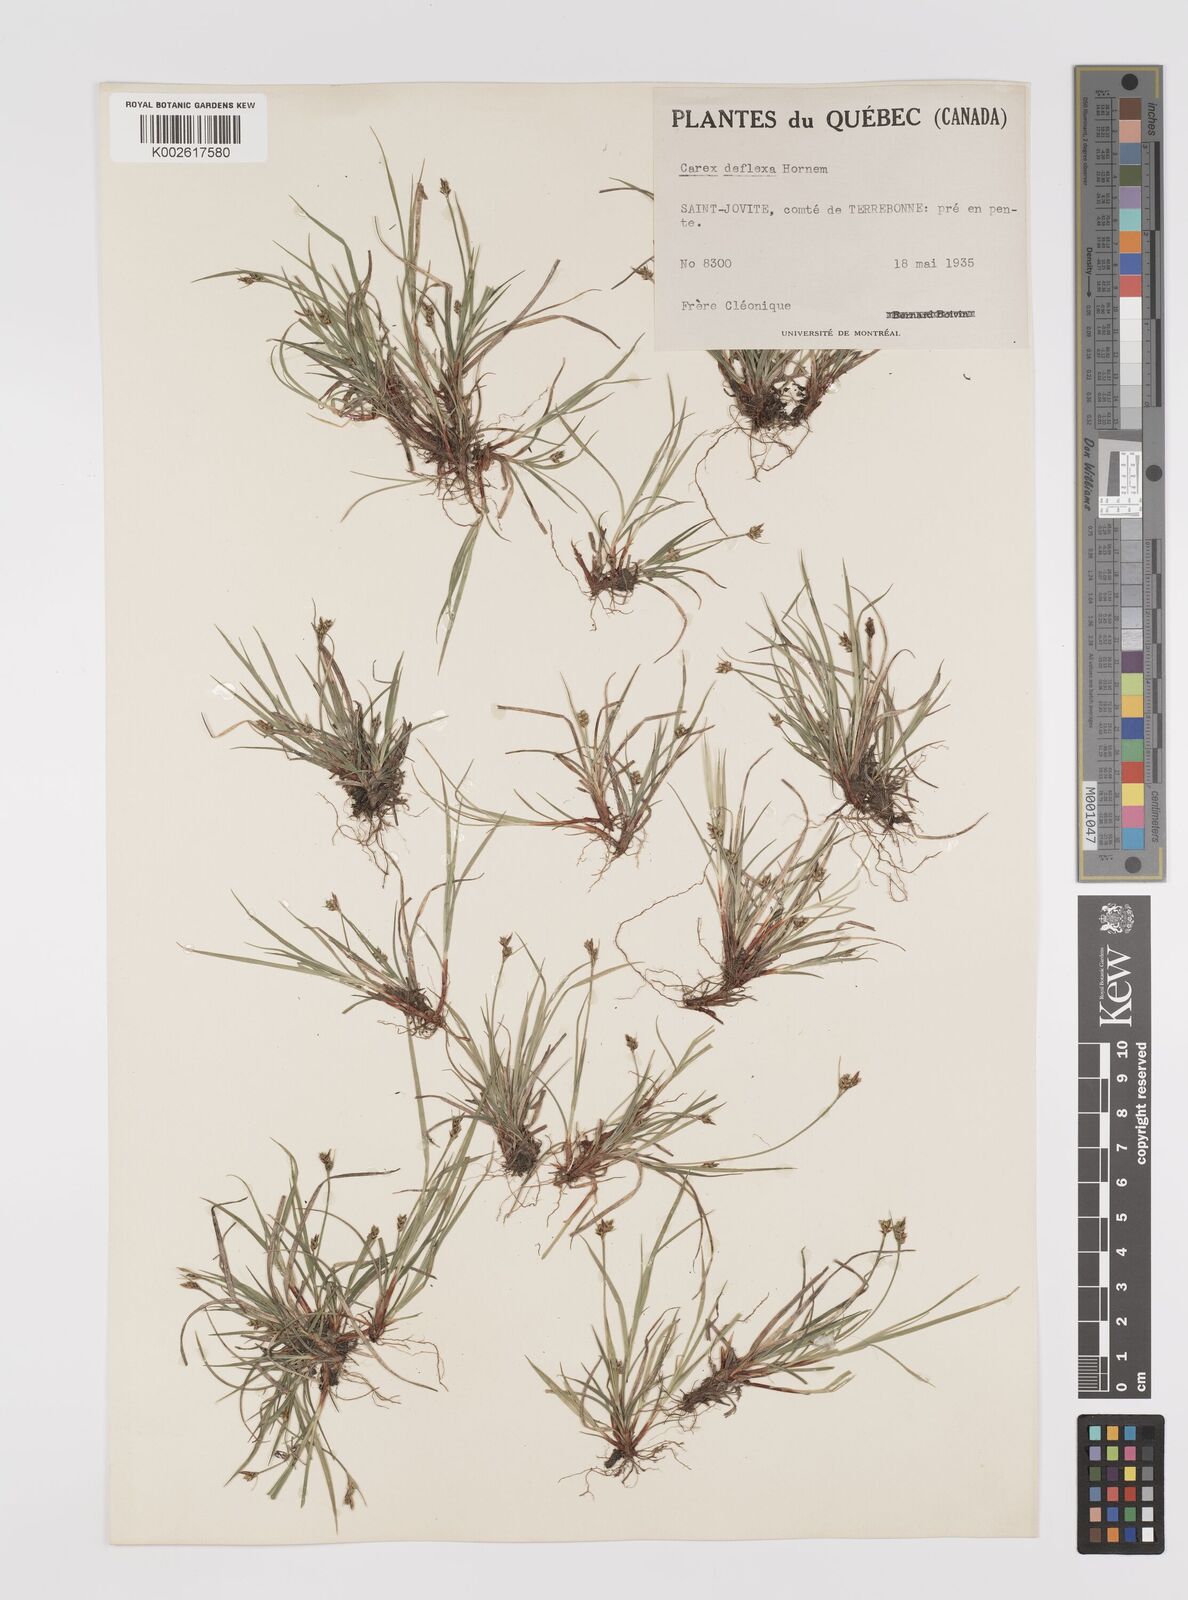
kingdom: Plantae
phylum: Tracheophyta
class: Liliopsida
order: Poales
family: Cyperaceae
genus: Carex
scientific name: Carex deflexa
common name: Bent northern sedge
